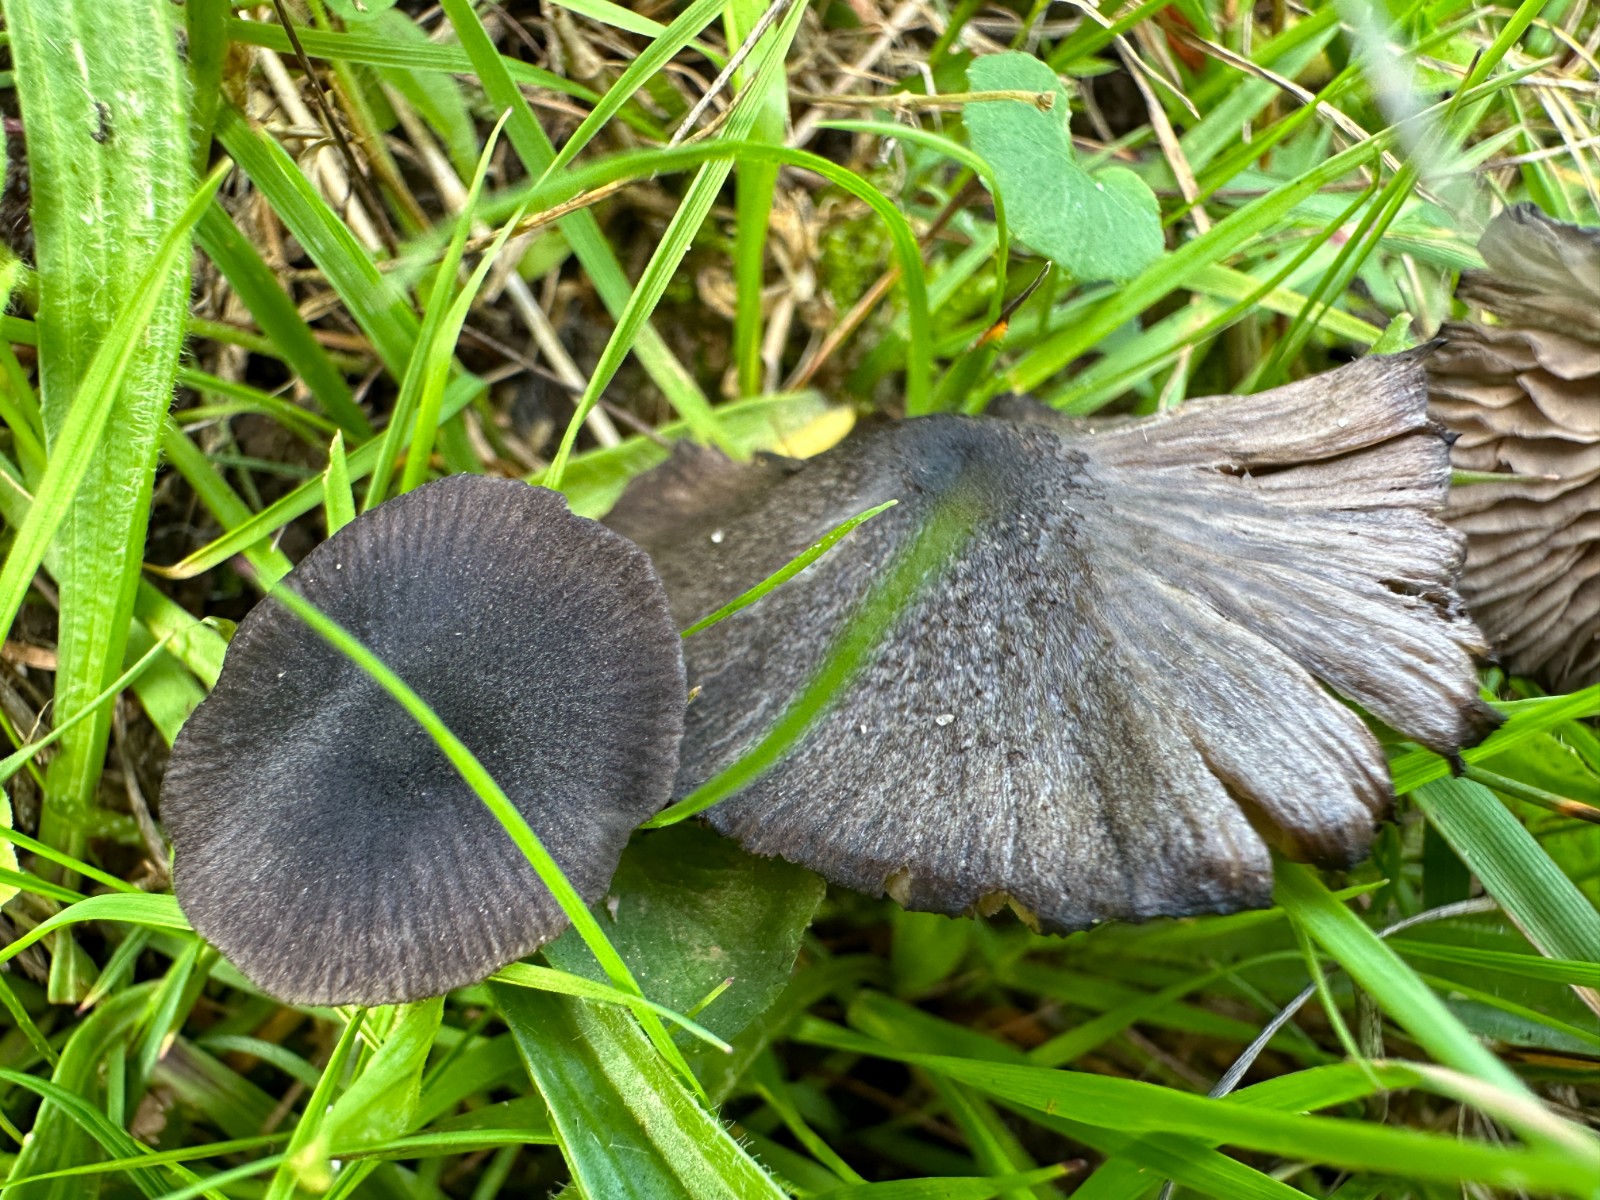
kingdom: Fungi
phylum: Basidiomycota
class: Agaricomycetes
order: Agaricales
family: Entolomataceae
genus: Entoloma
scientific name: Entoloma chalybeum
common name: blåbladet rødblad
